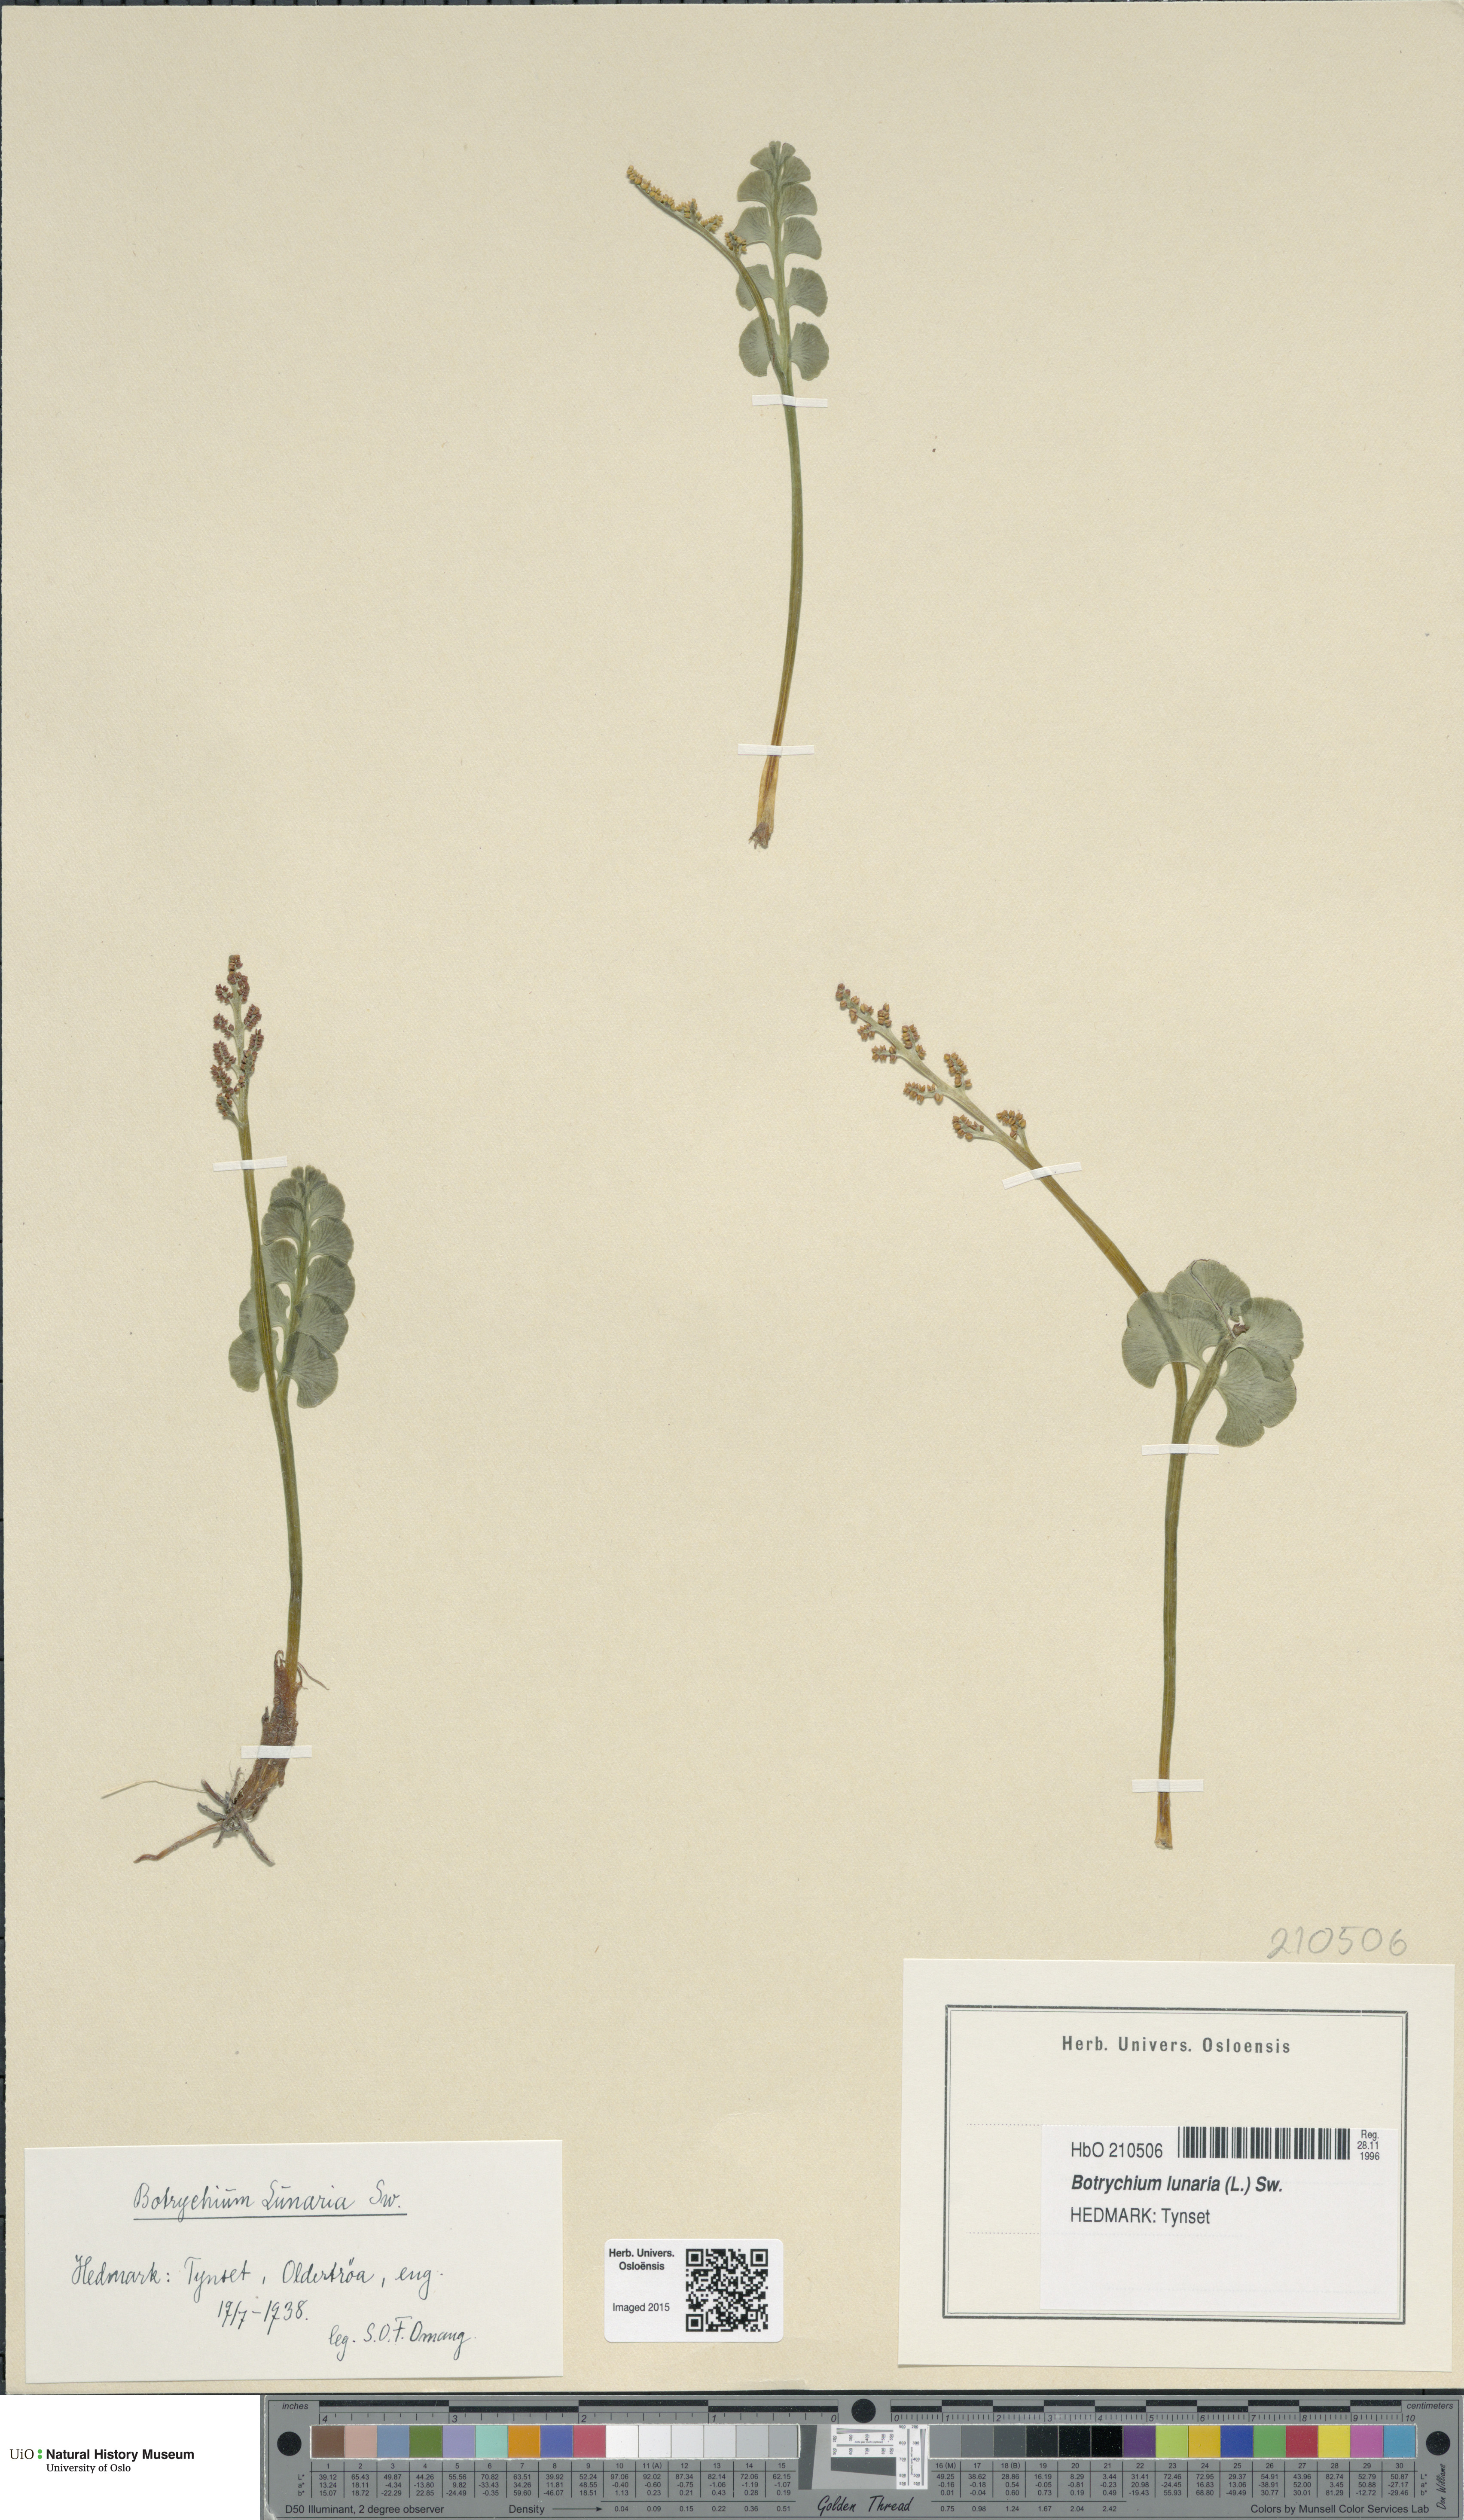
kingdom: Plantae
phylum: Tracheophyta
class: Polypodiopsida
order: Ophioglossales
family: Ophioglossaceae
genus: Botrychium
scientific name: Botrychium lunaria
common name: Moonwort
